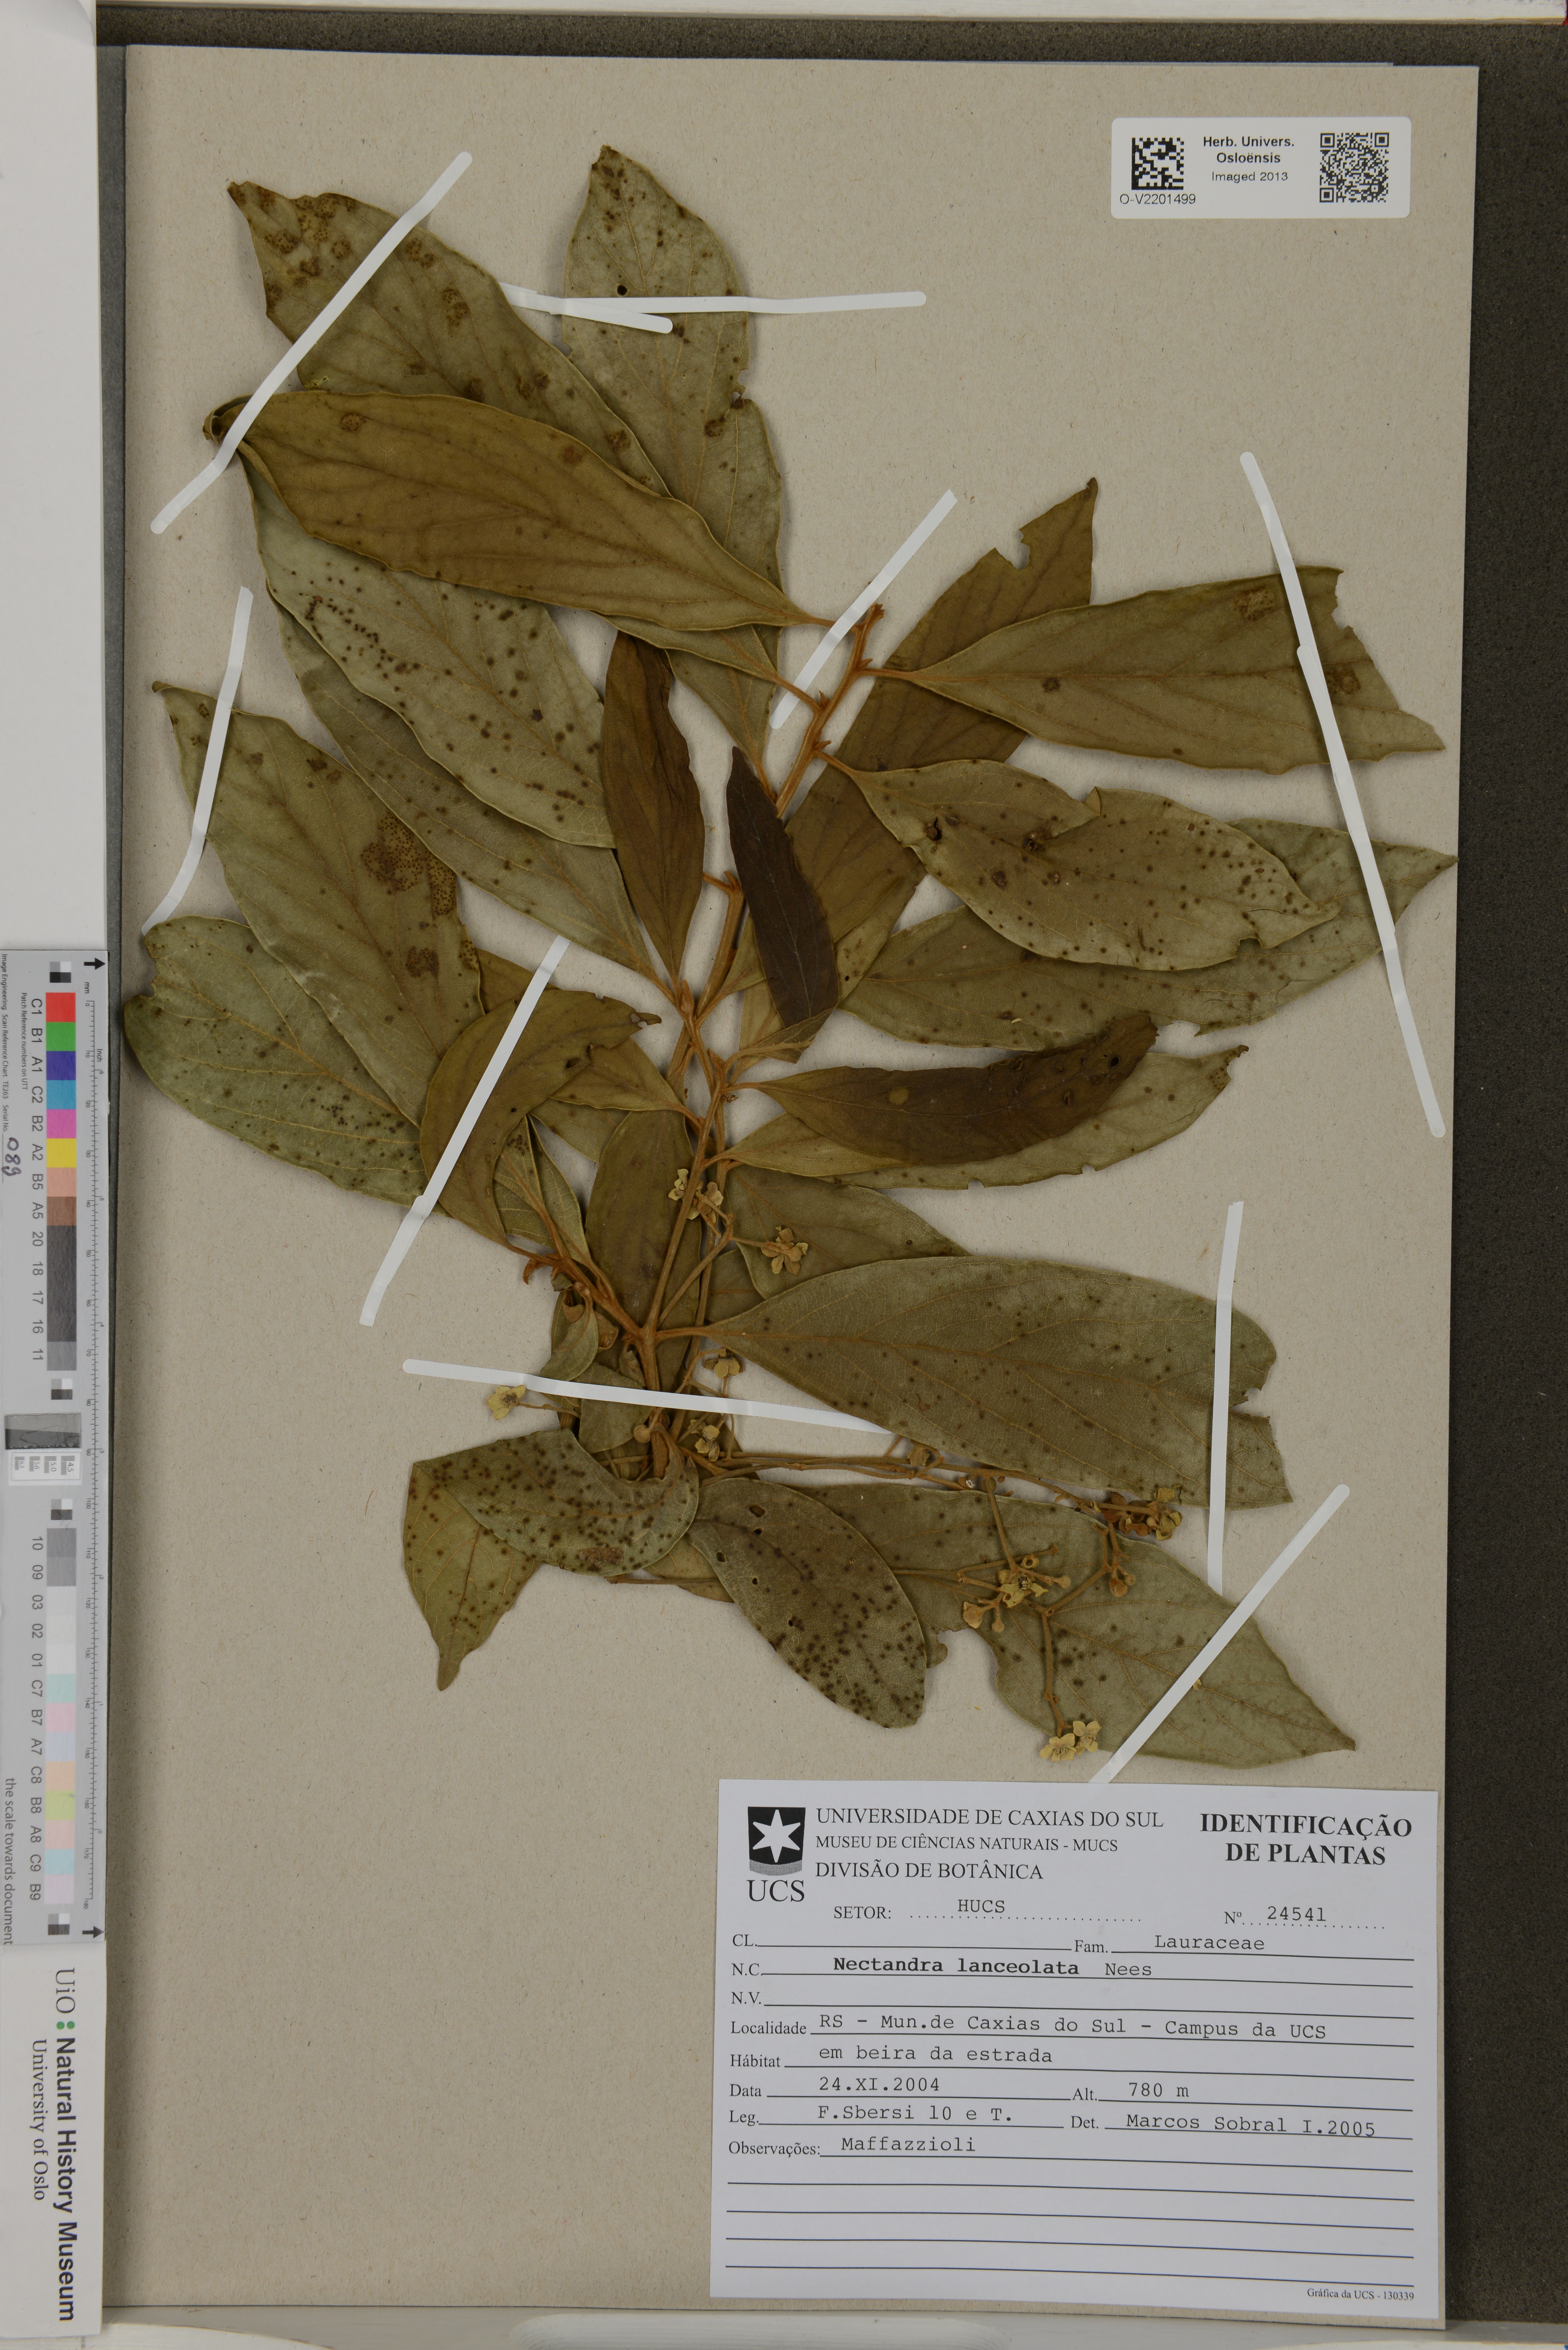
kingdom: Plantae
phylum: Tracheophyta
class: Magnoliopsida
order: Laurales
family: Lauraceae
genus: Nectandra
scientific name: Nectandra lanceolata
